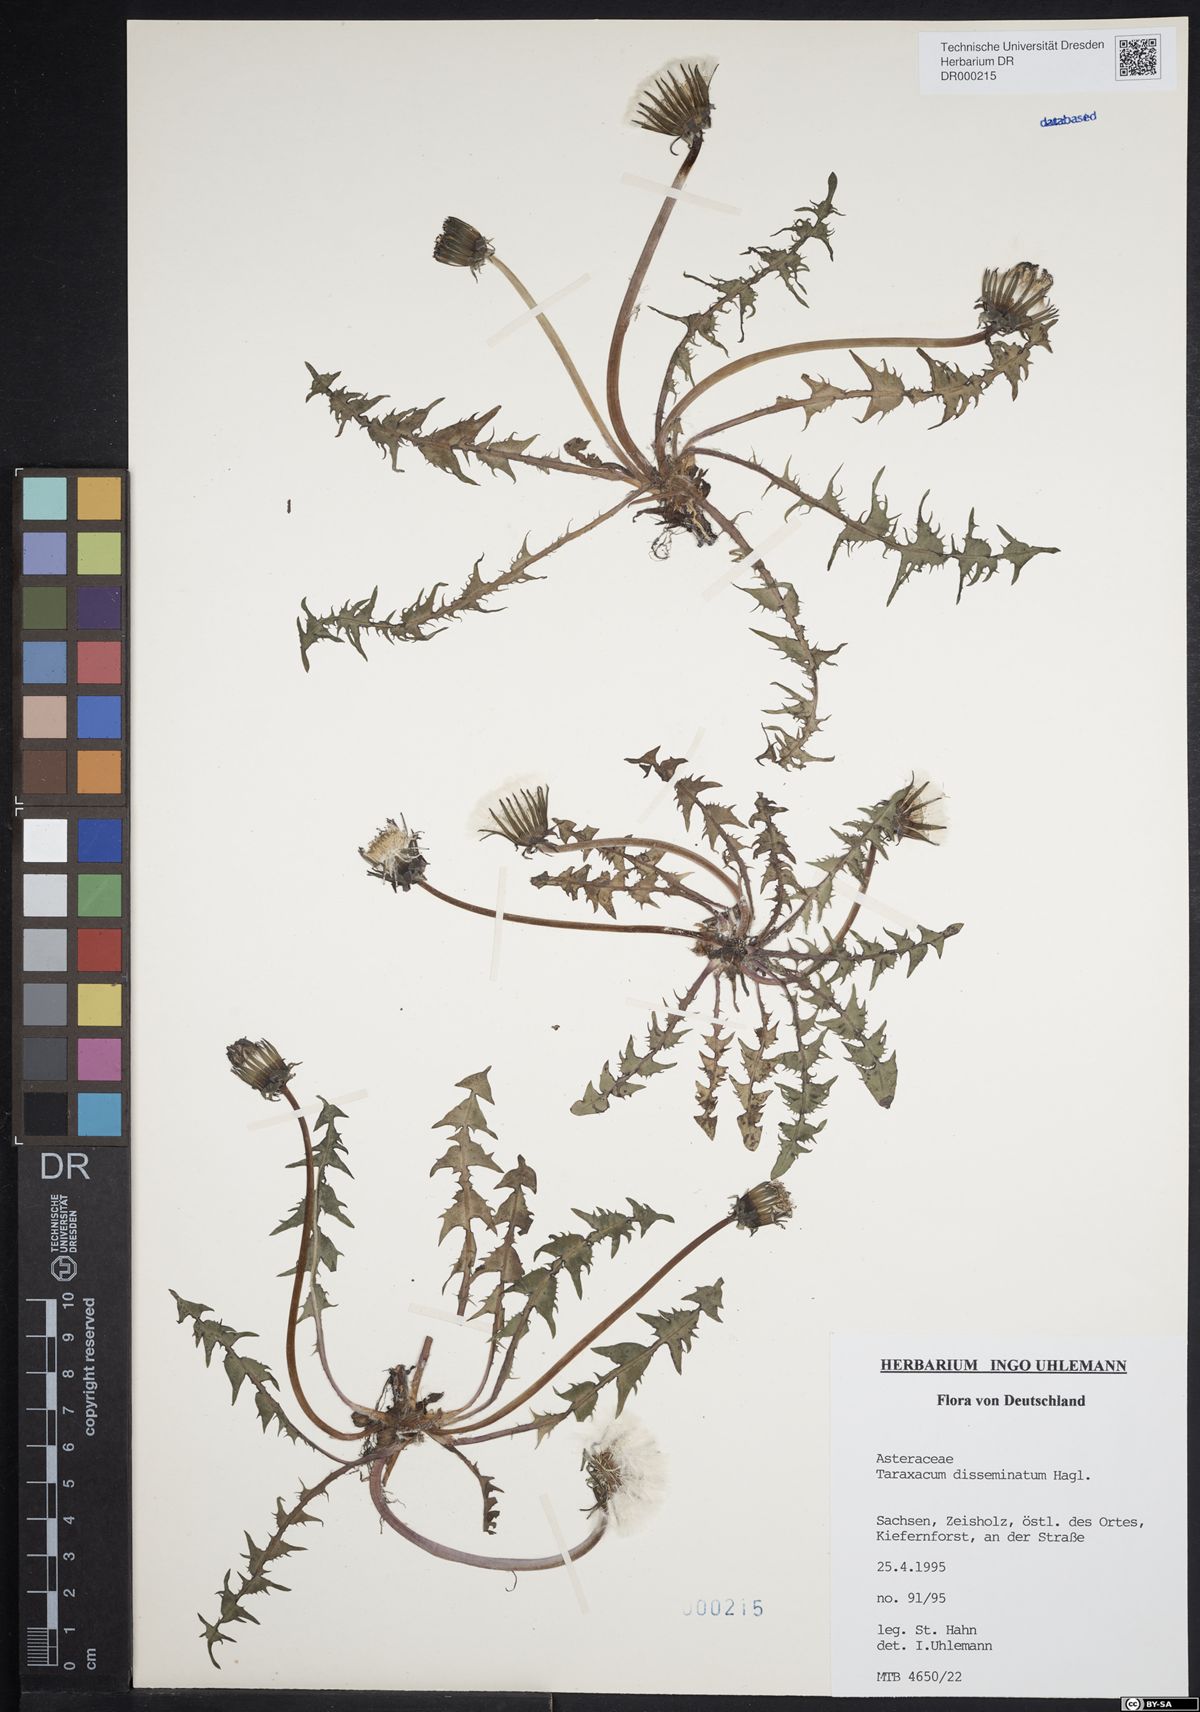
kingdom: Plantae
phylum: Tracheophyta
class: Magnoliopsida
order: Asterales
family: Asteraceae
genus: Taraxacum
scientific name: Taraxacum disseminatum
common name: Golden-fruited dandelion
